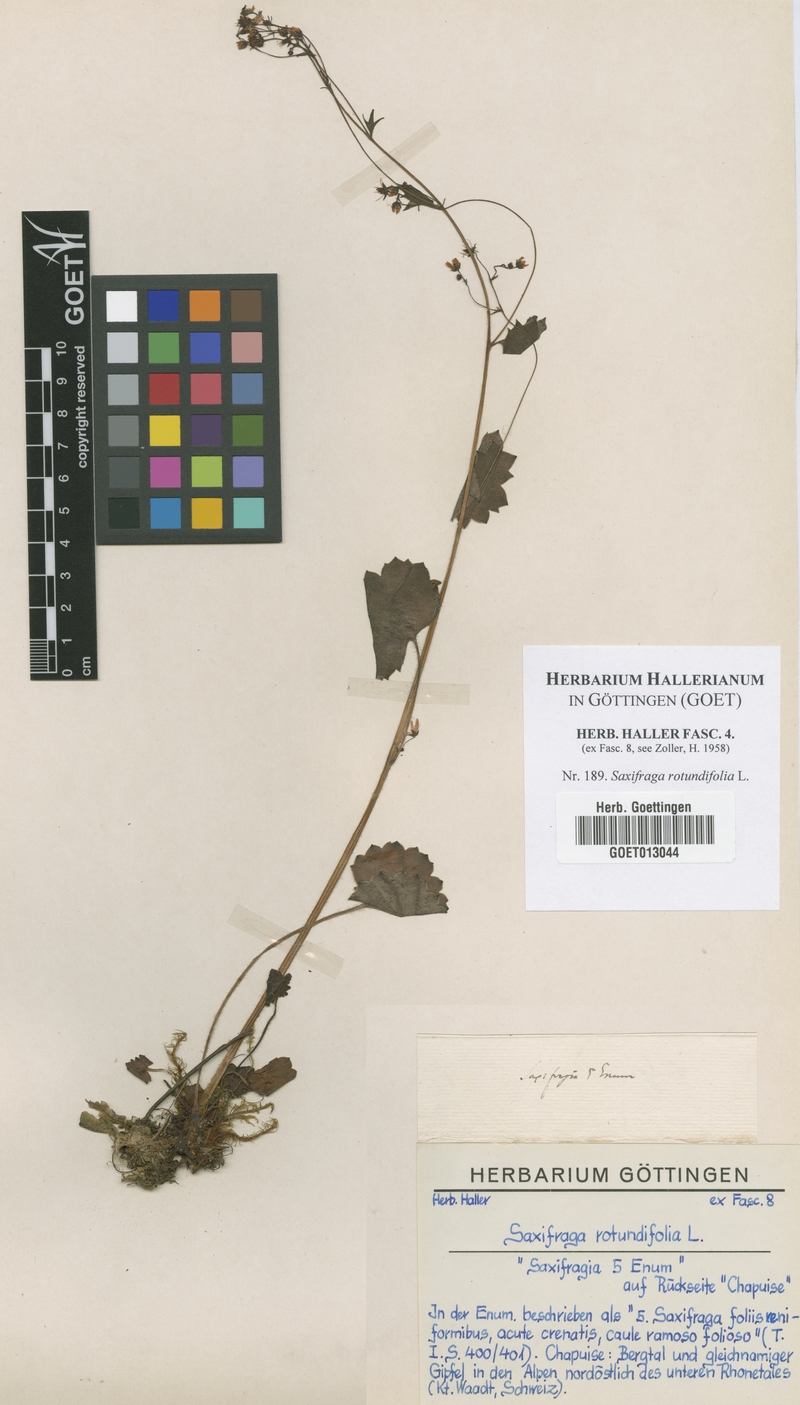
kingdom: Plantae
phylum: Tracheophyta
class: Magnoliopsida
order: Saxifragales
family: Saxifragaceae
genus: Saxifraga
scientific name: Saxifraga rotundifolia
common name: Round-leaved saxifrage
